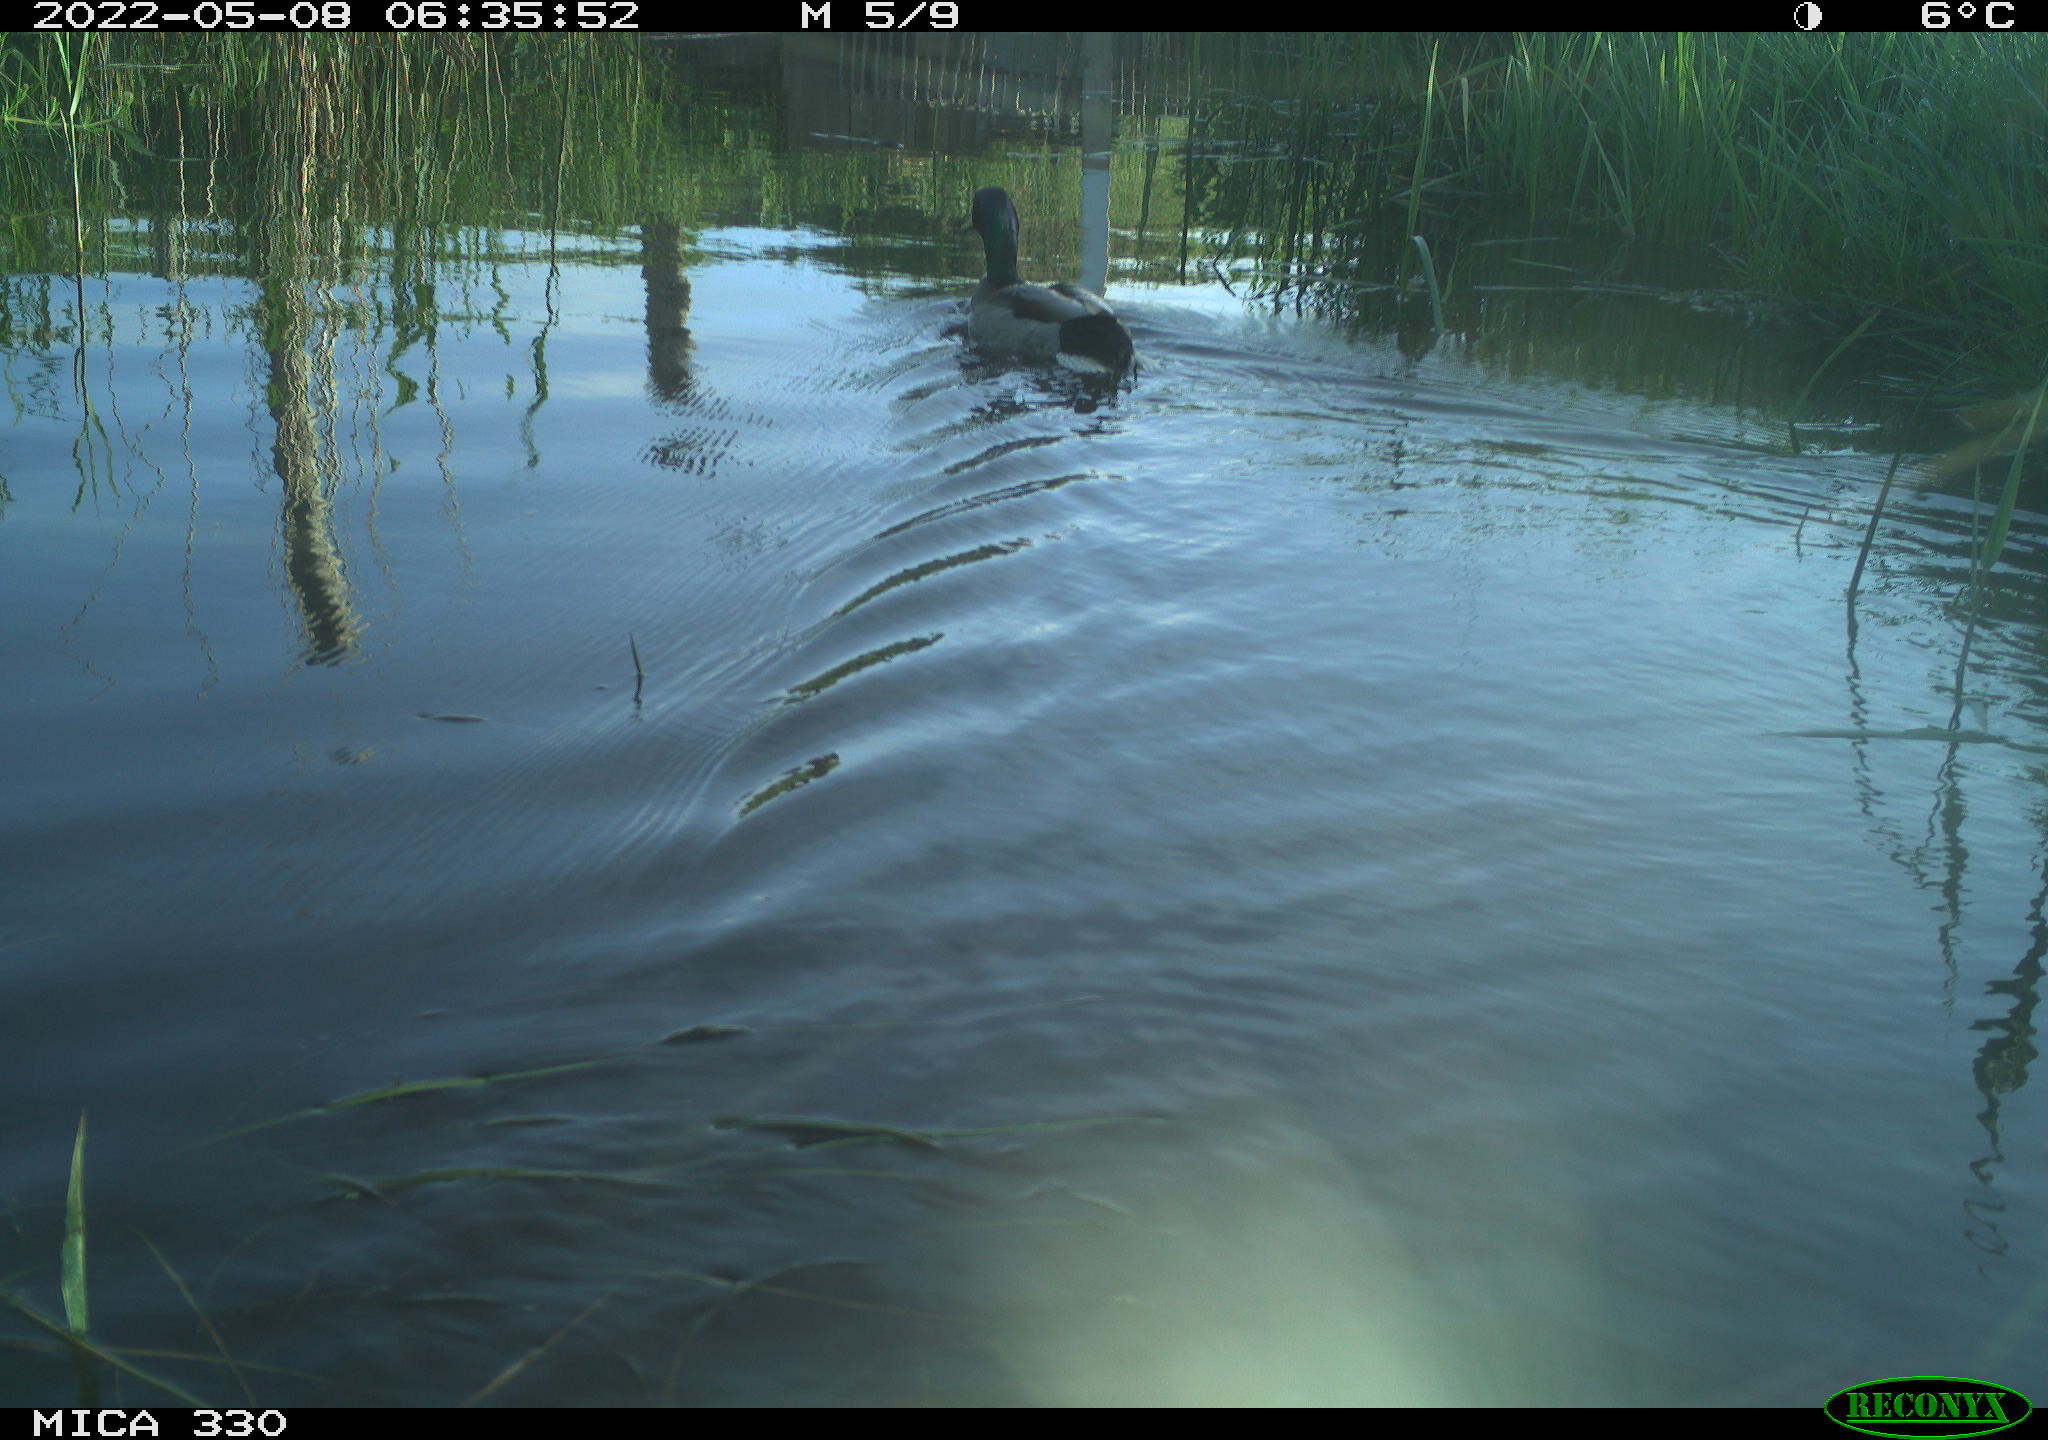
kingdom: Animalia
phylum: Chordata
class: Aves
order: Anseriformes
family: Anatidae
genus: Anas
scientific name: Anas platyrhynchos
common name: Mallard
